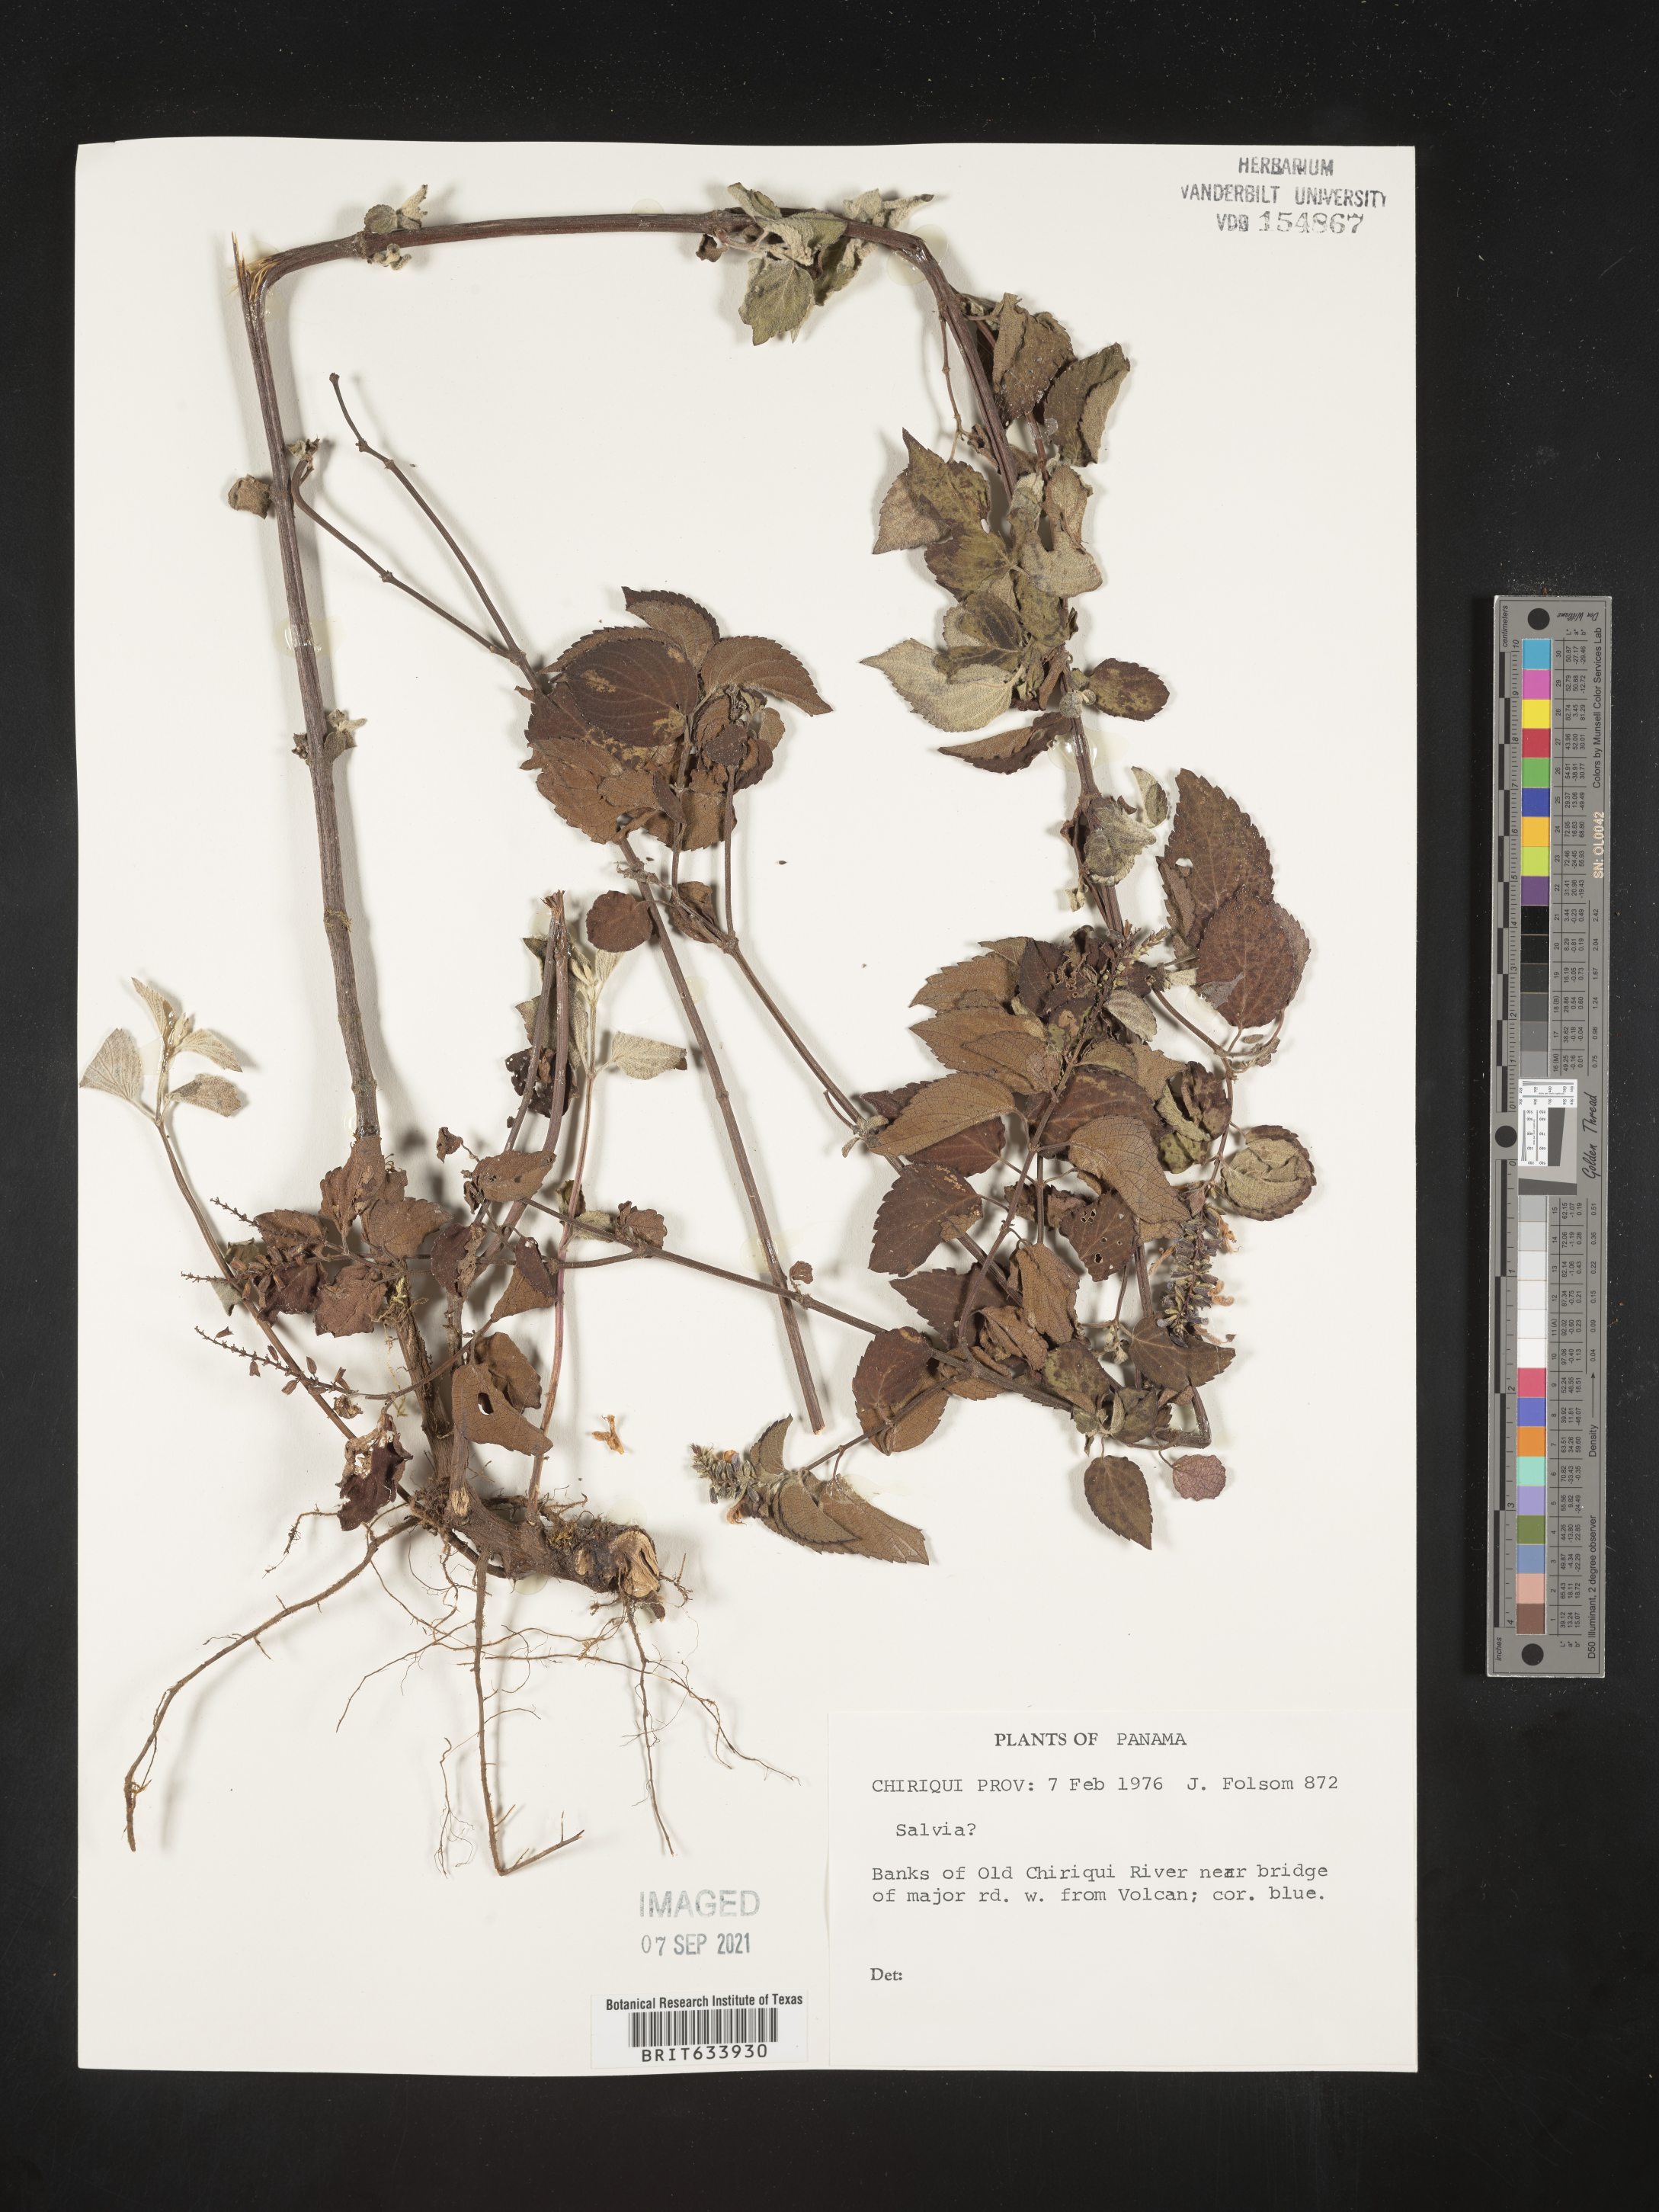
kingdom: Plantae
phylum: Tracheophyta
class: Magnoliopsida
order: Lamiales
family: Lamiaceae
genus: Salvia
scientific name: Salvia
